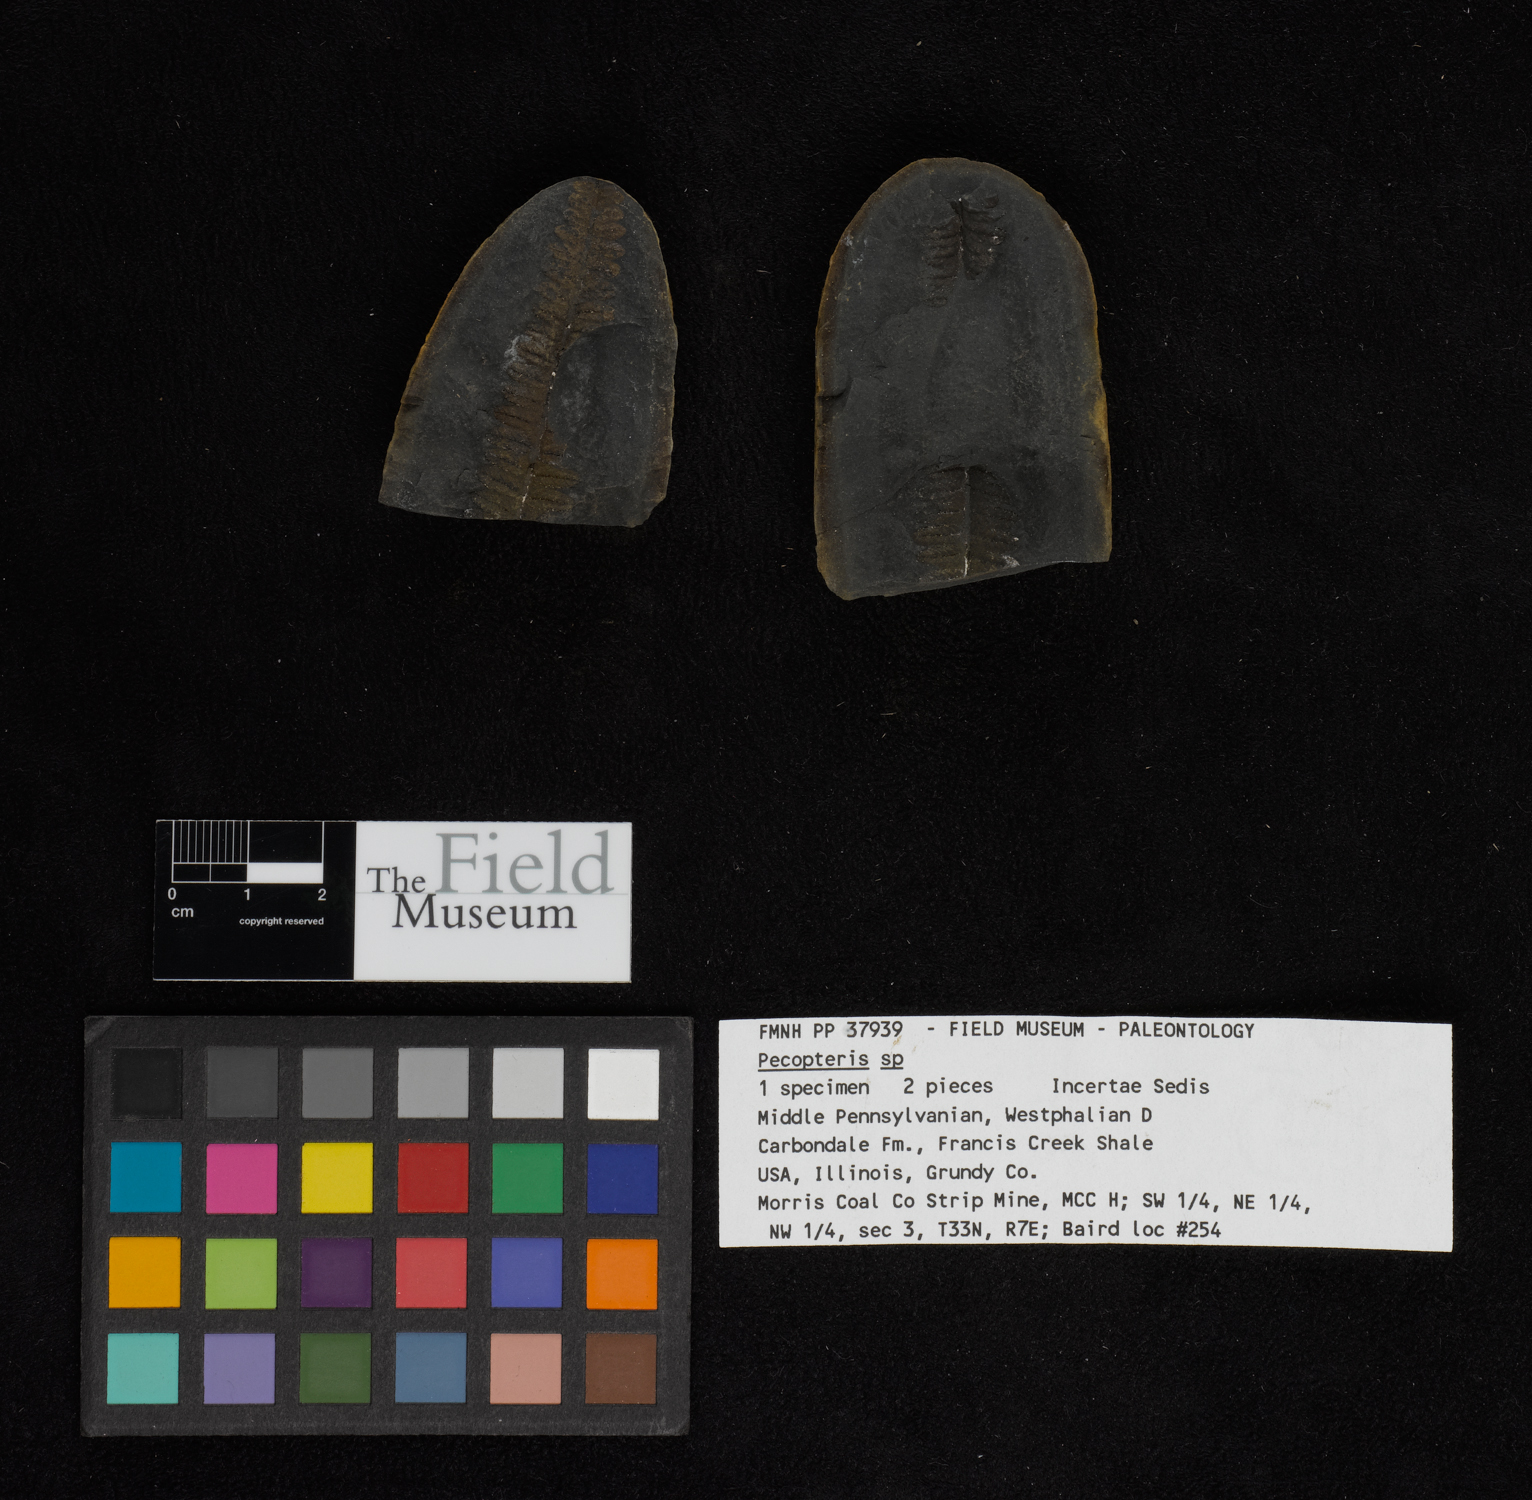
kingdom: Plantae
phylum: Tracheophyta
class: Polypodiopsida
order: Marattiales
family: Asterothecaceae
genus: Pecopteris
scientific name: Pecopteris
